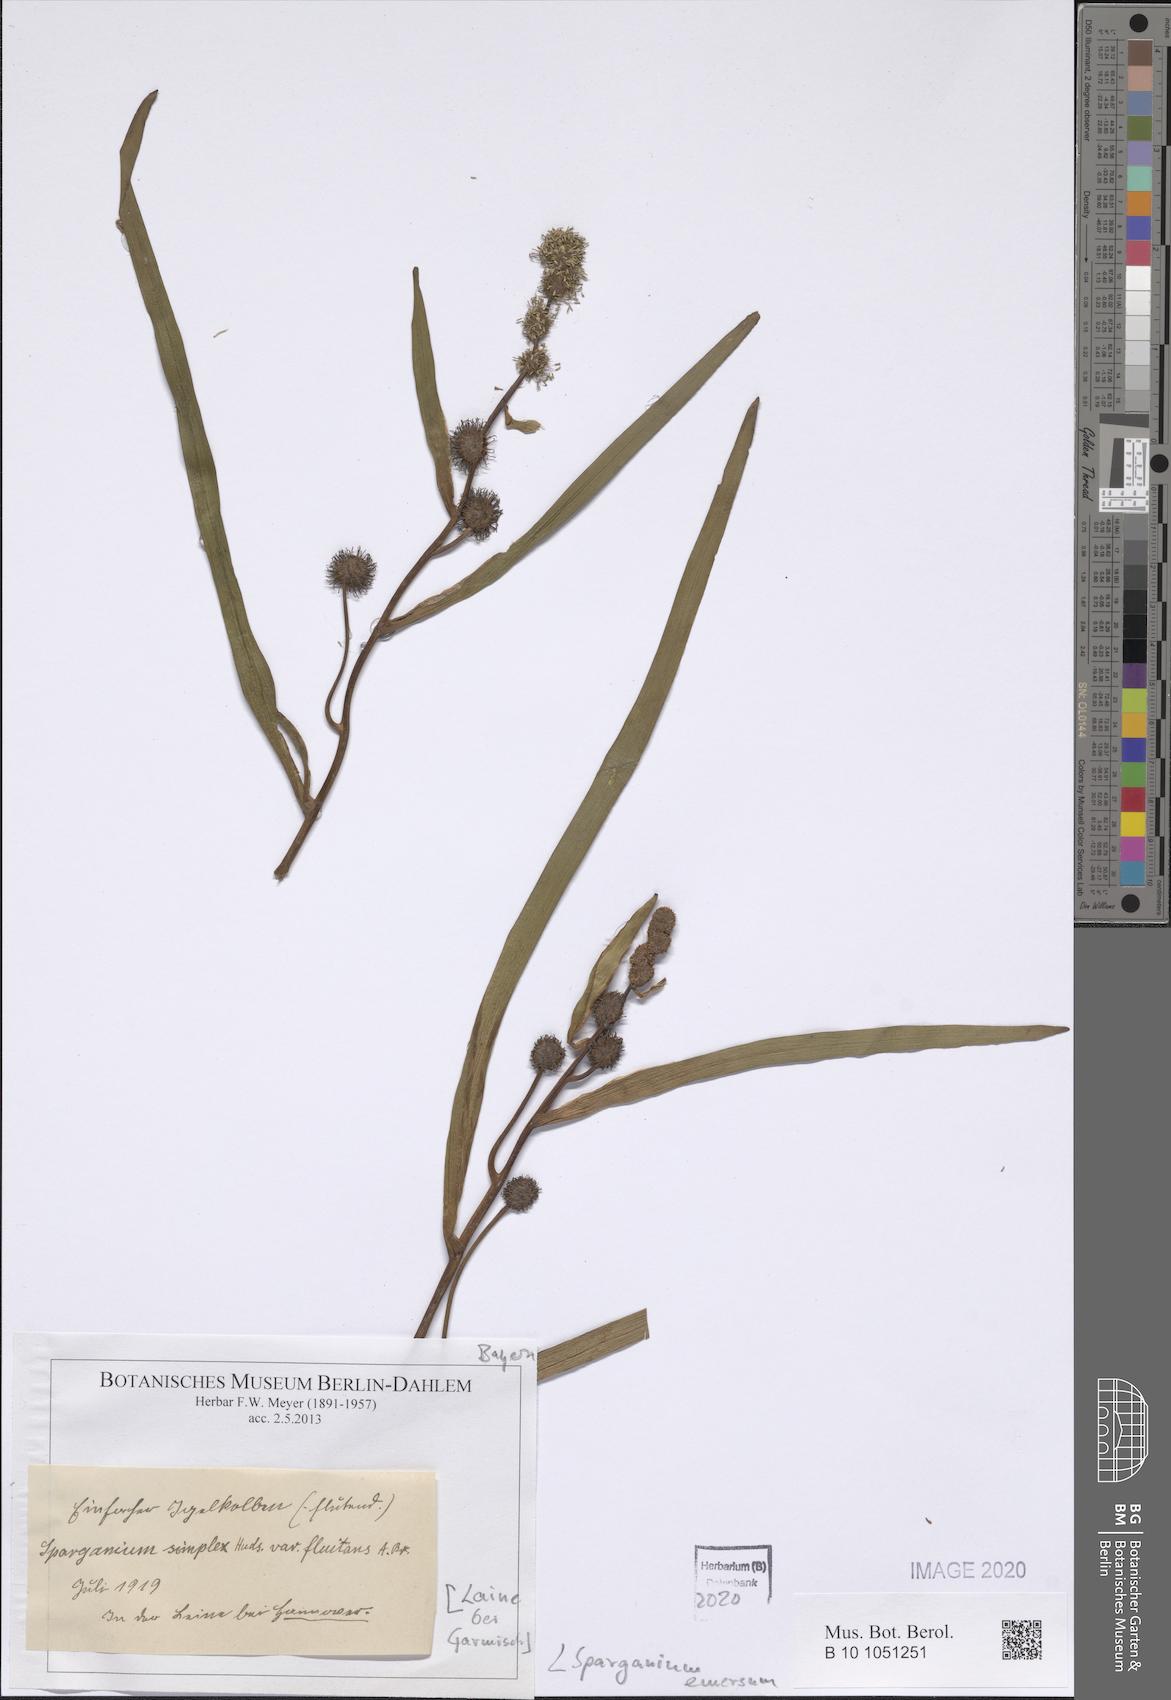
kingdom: Plantae
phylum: Tracheophyta
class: Liliopsida
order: Poales
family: Typhaceae
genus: Sparganium
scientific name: Sparganium emersum
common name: Unbranched bur-reed
